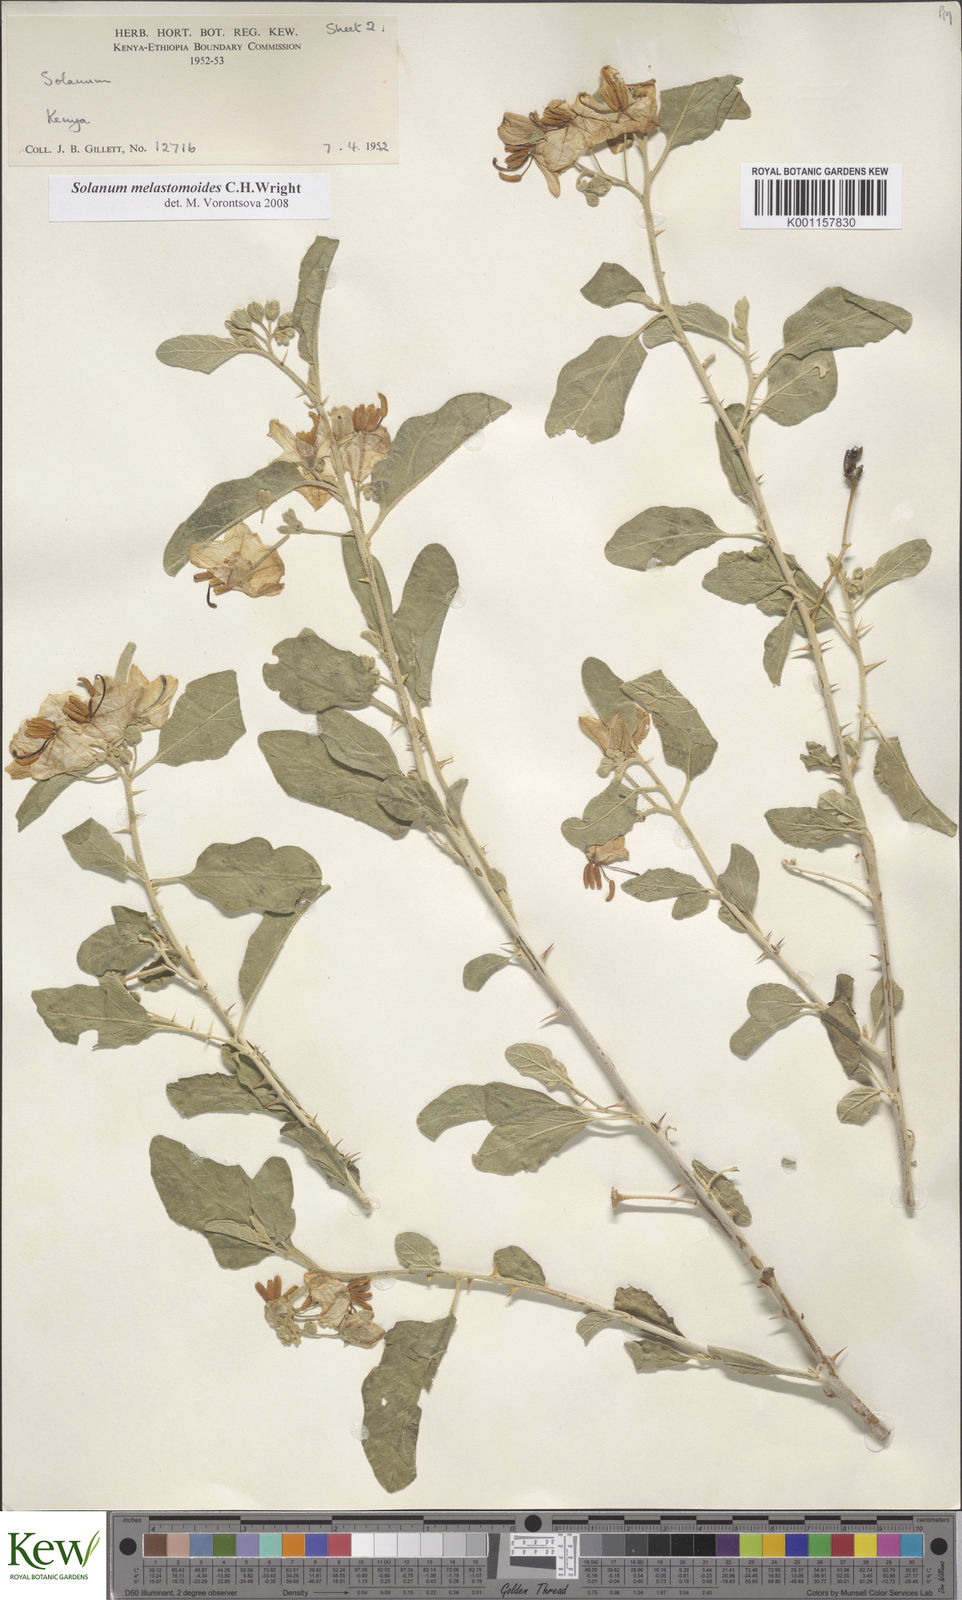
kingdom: Plantae
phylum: Tracheophyta
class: Magnoliopsida
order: Solanales
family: Solanaceae
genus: Solanum
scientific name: Solanum melastomoides
